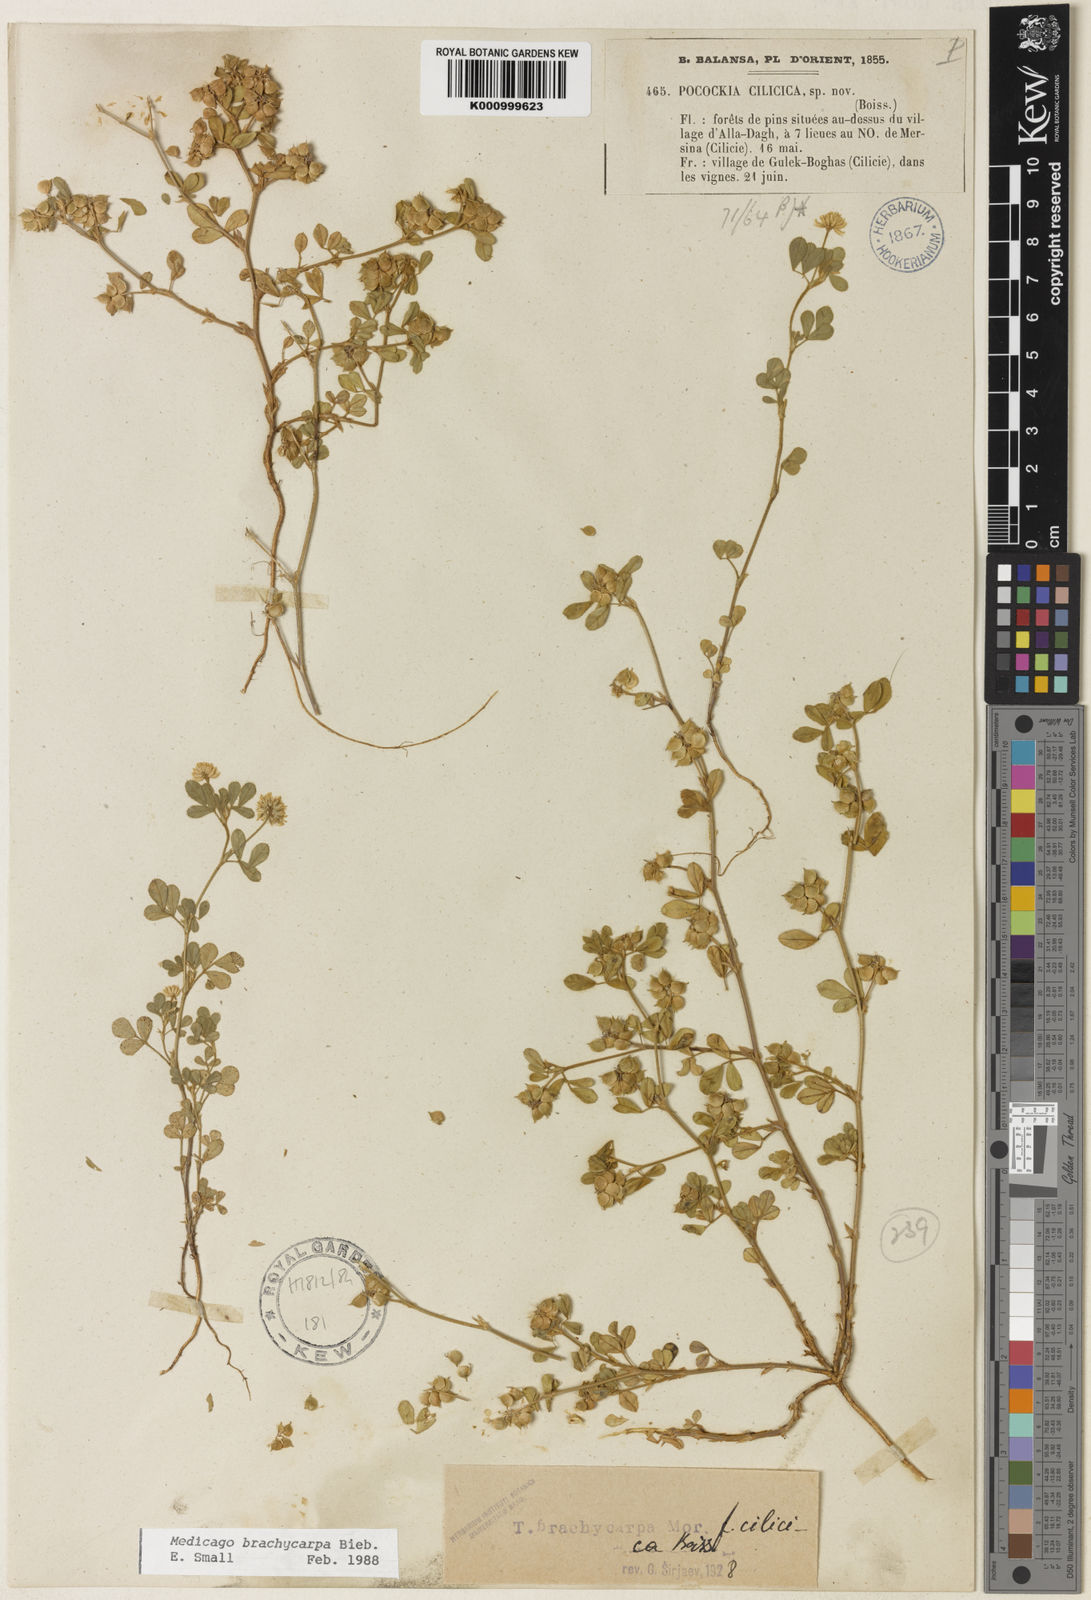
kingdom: Plantae
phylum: Tracheophyta
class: Magnoliopsida
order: Fabales
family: Fabaceae
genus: Medicago
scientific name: Medicago brachycarpa
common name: Short-fruited fenugreek
